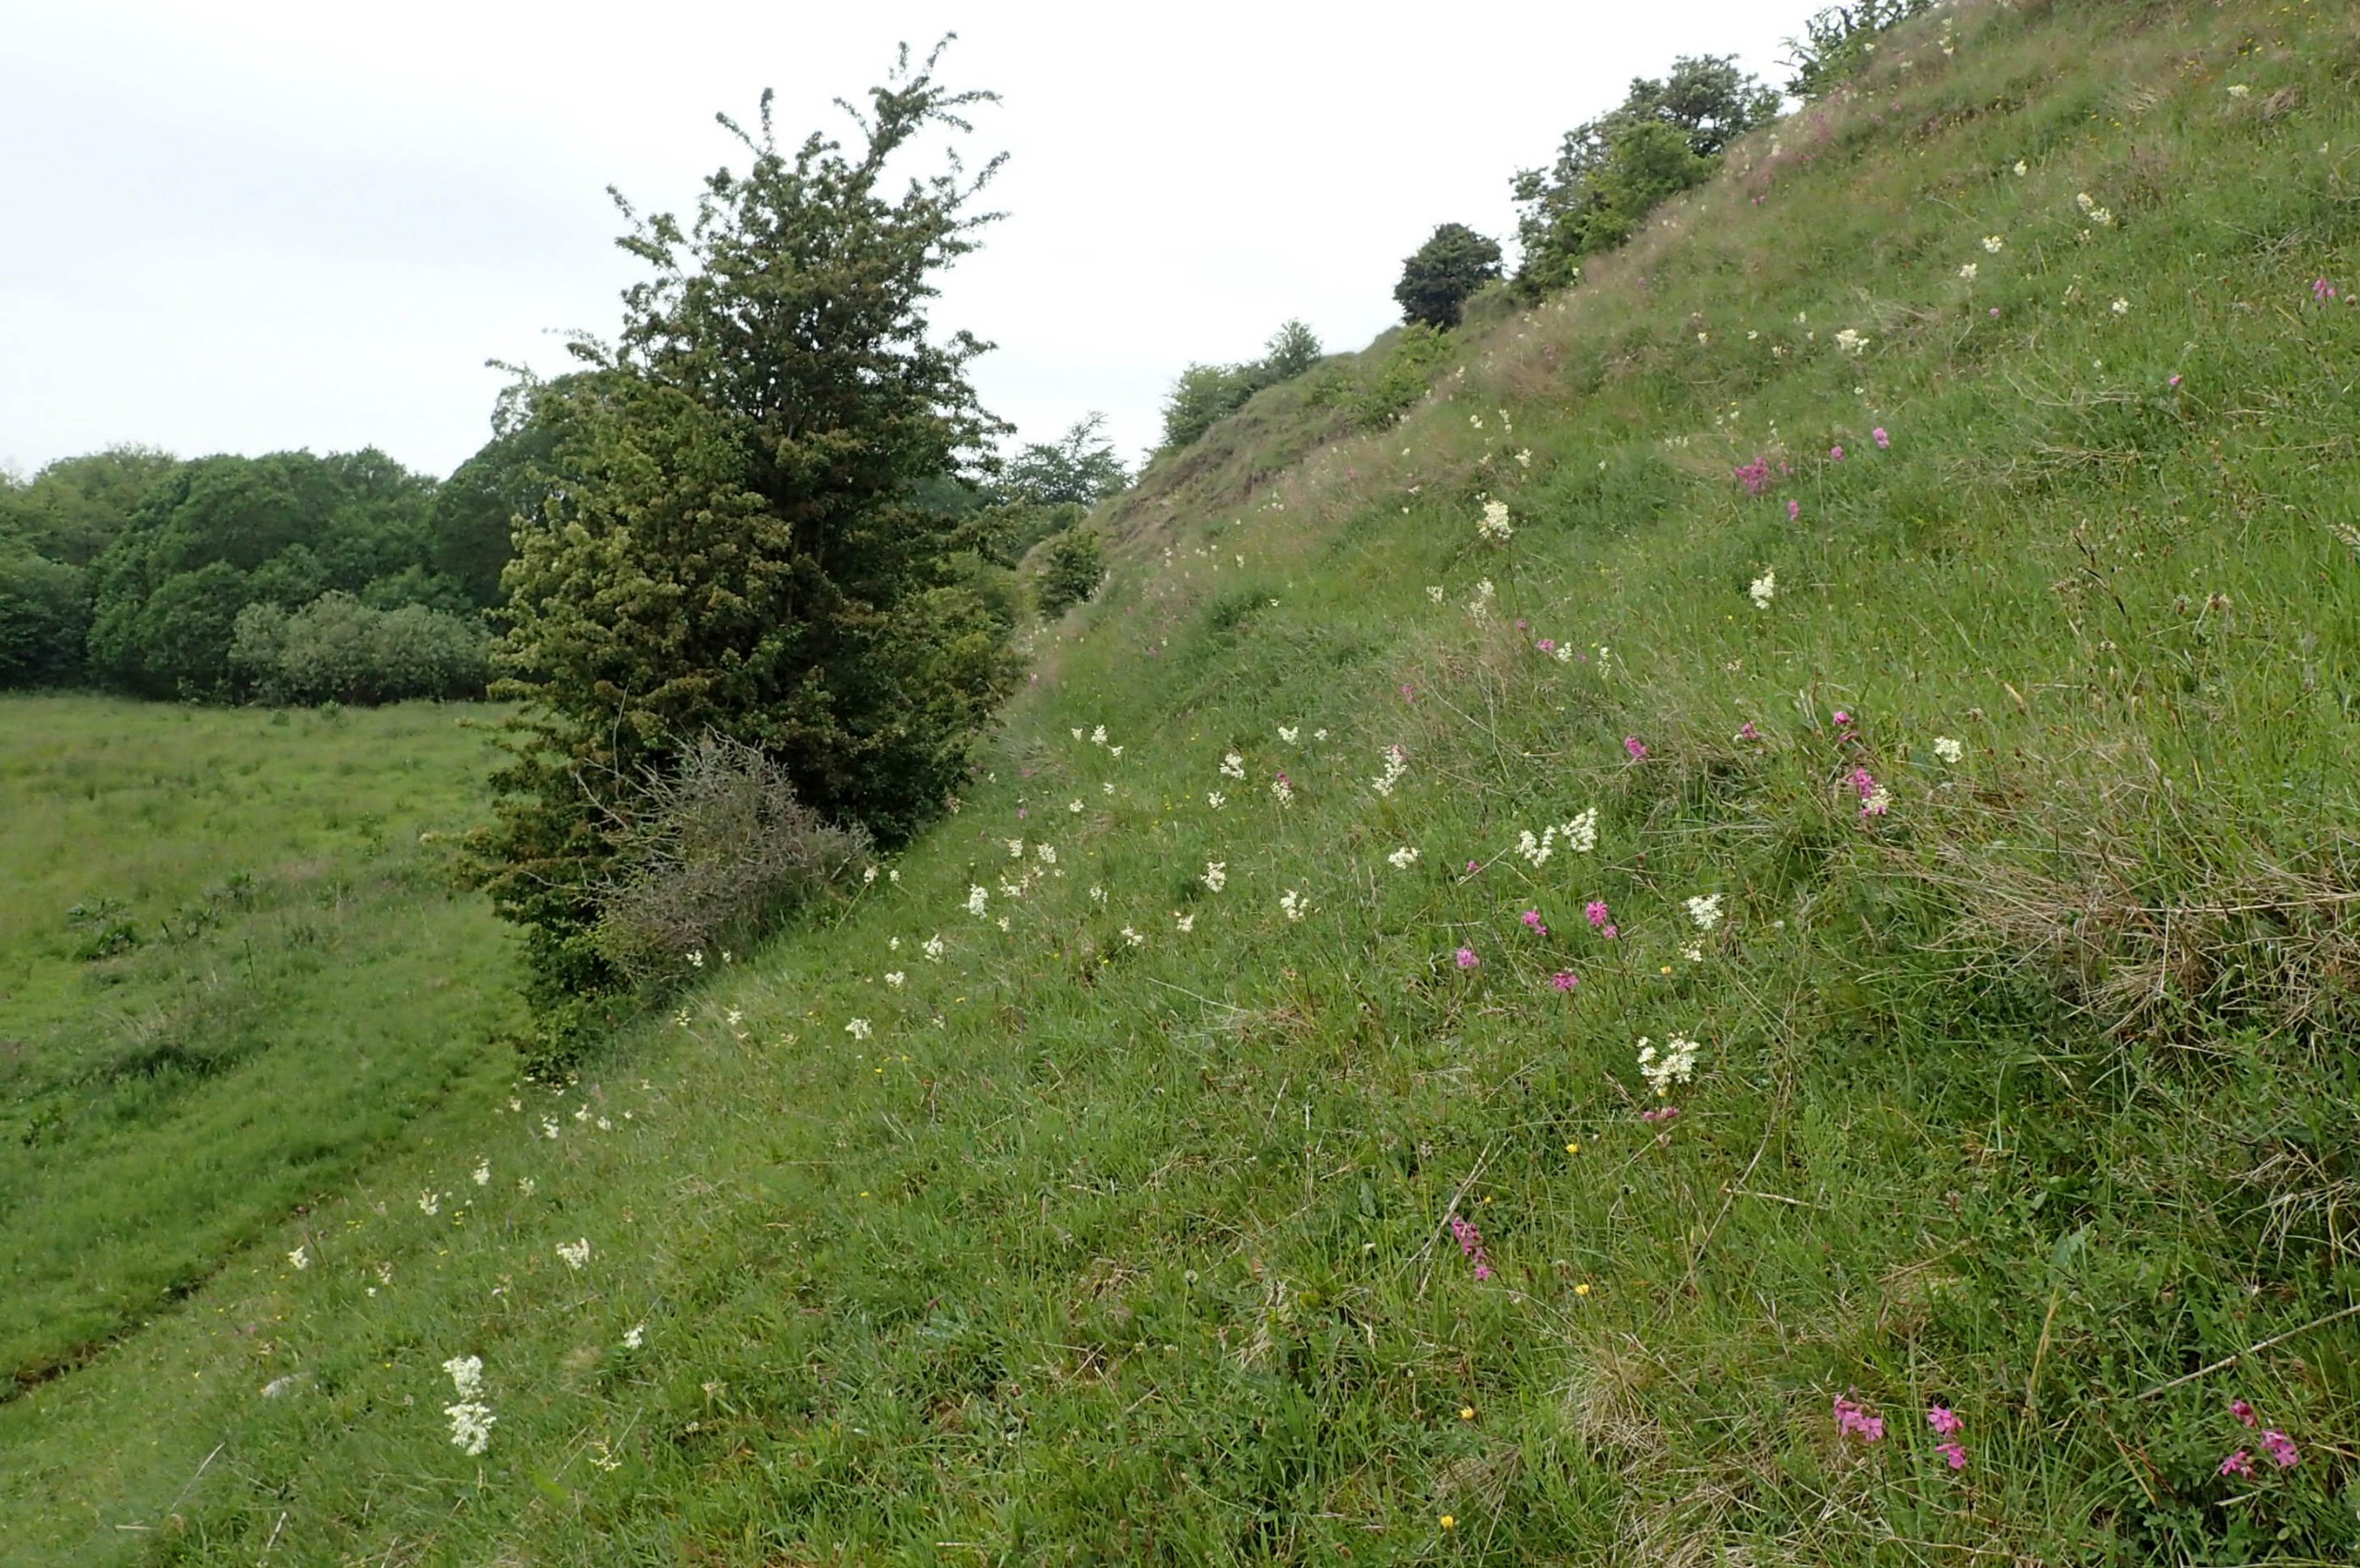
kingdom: Plantae
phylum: Tracheophyta
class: Magnoliopsida
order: Rosales
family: Rosaceae
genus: Filipendula
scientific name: Filipendula vulgaris
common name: Knoldet mjødurt
